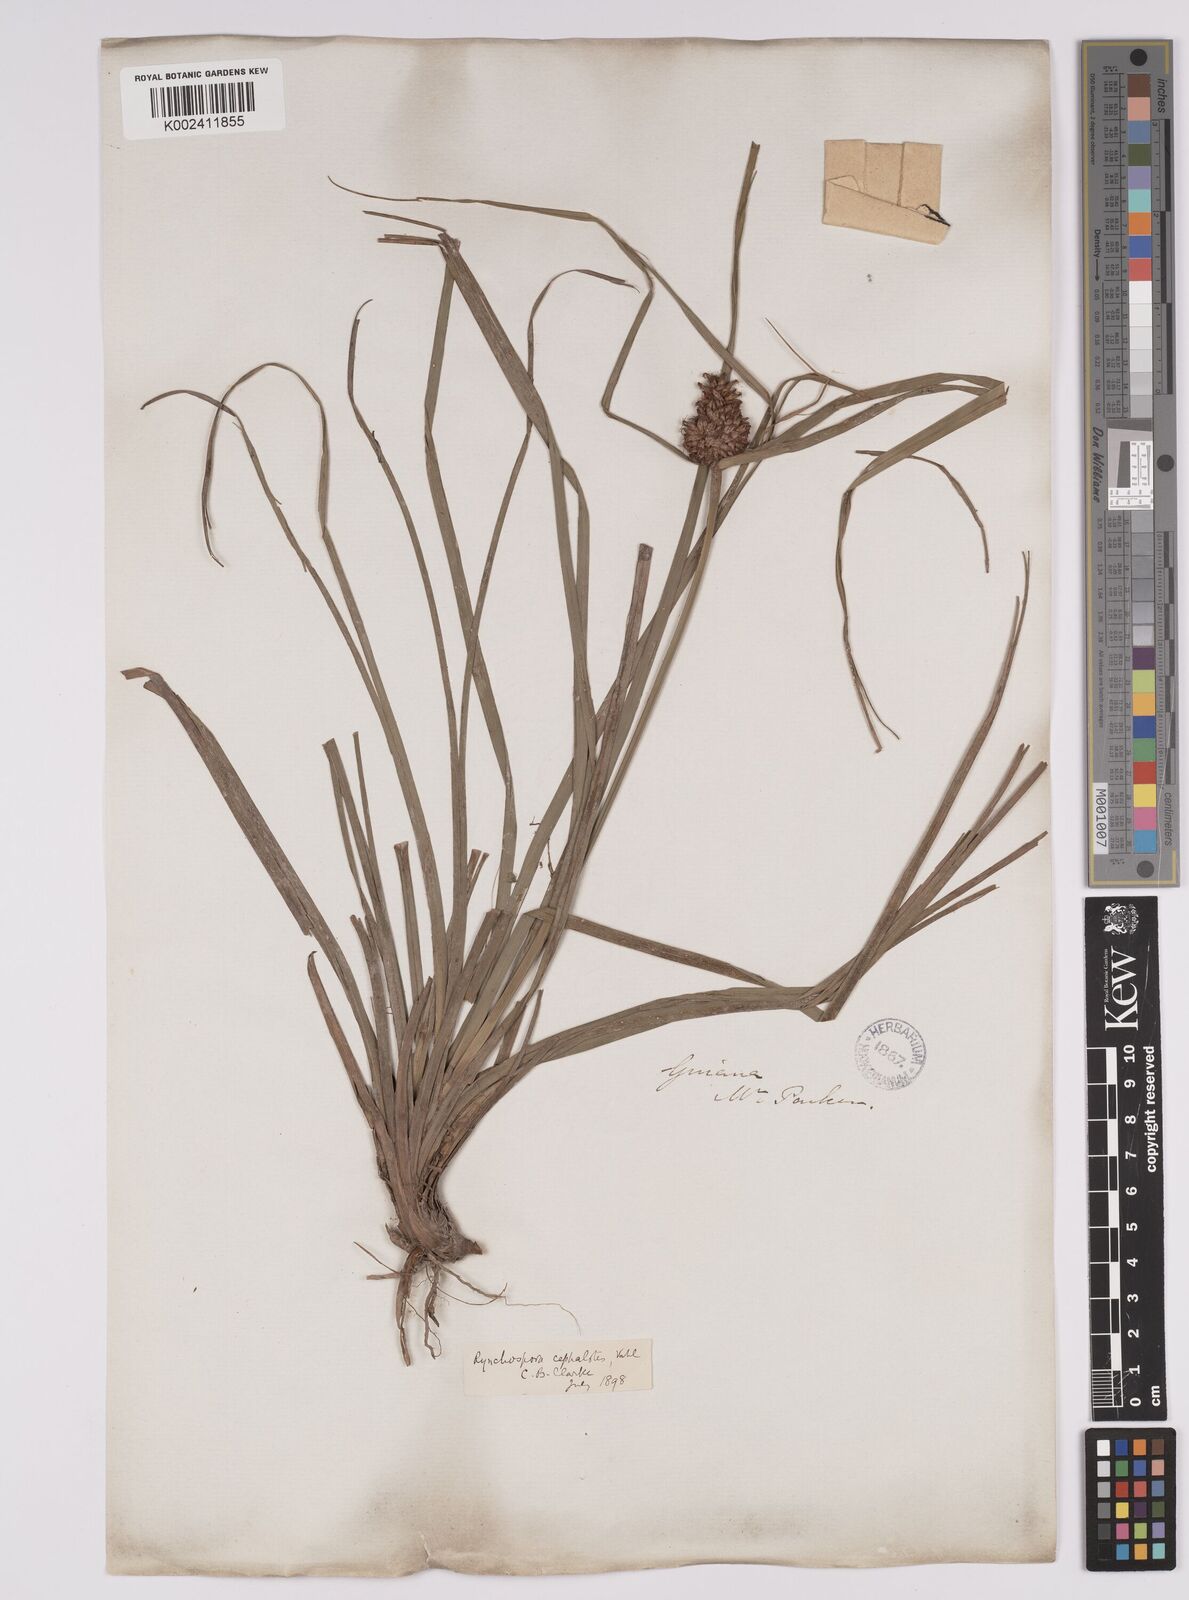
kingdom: Plantae
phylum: Tracheophyta
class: Liliopsida
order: Poales
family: Cyperaceae
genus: Rhynchospora
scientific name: Rhynchospora cephalotes
